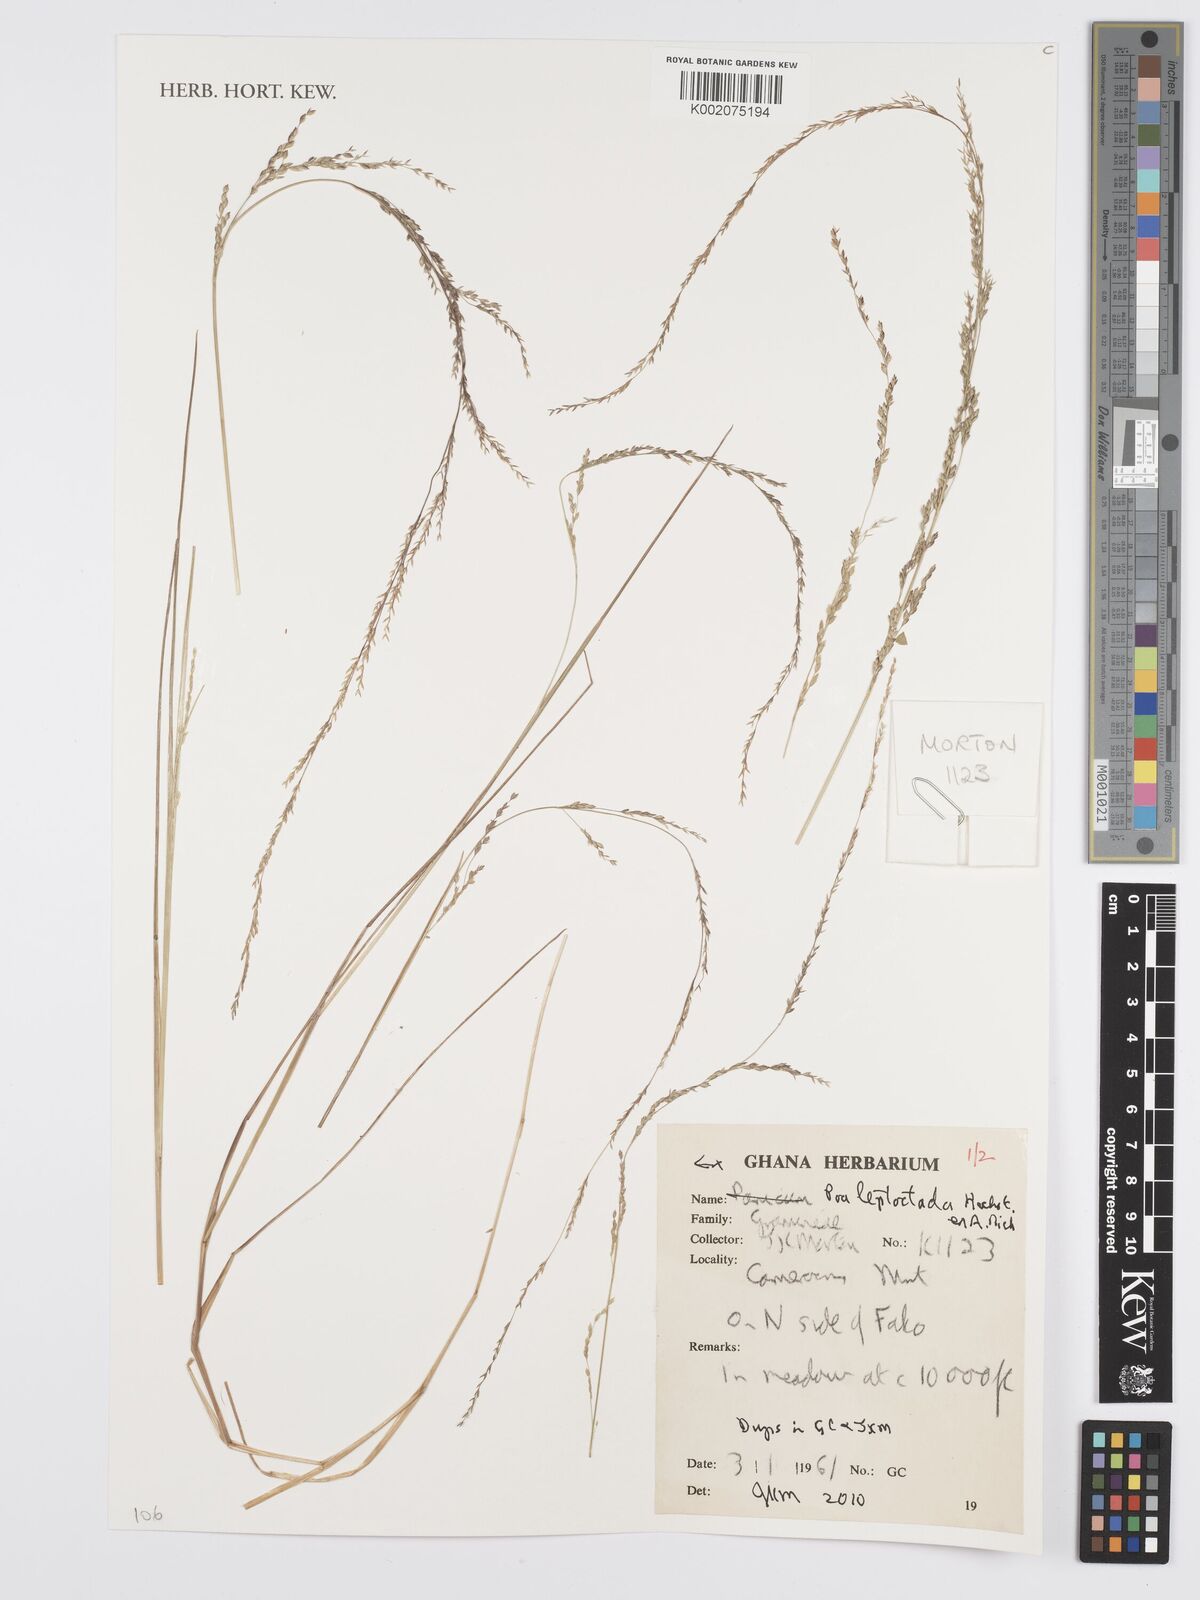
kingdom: Plantae
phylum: Tracheophyta
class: Liliopsida
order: Poales
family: Poaceae
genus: Poa
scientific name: Poa leptoclada
